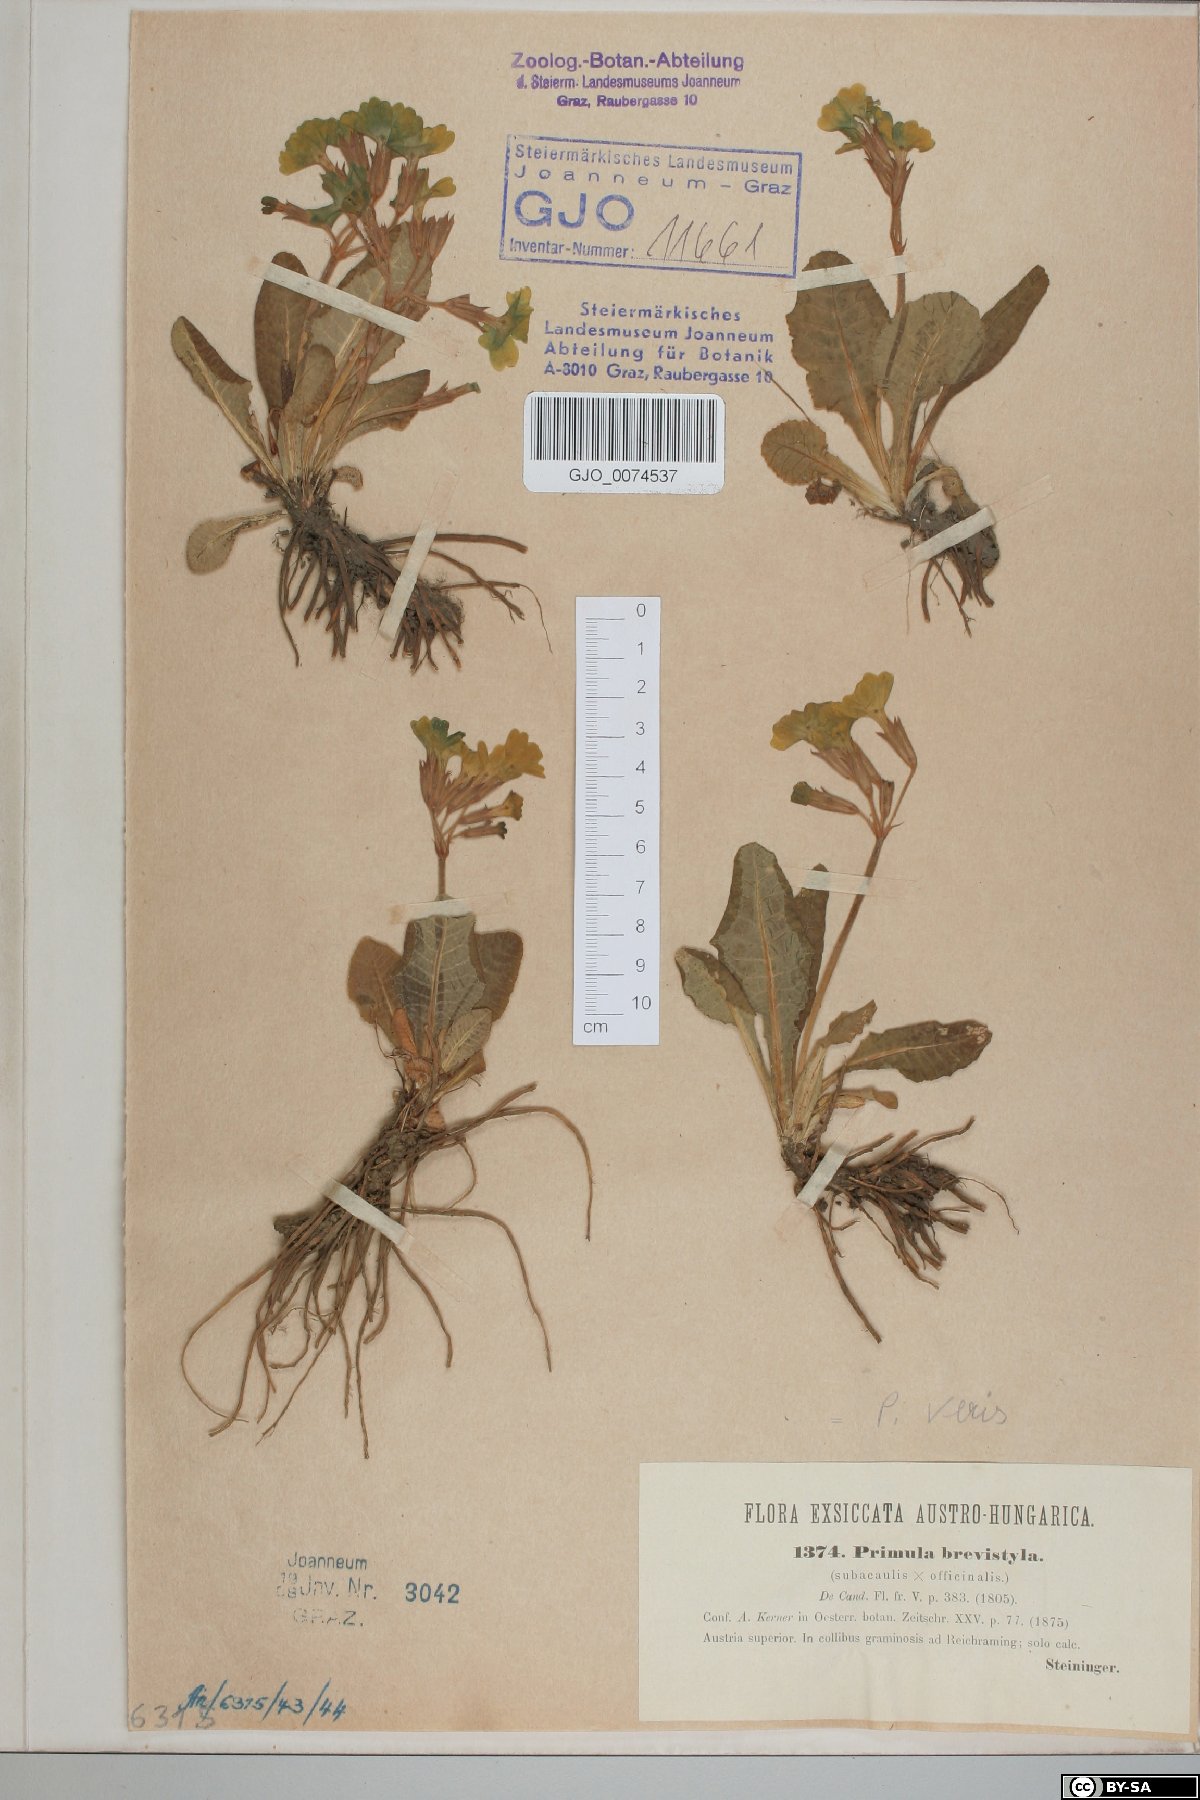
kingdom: Plantae
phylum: Tracheophyta
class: Magnoliopsida
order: Ericales
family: Primulaceae
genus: Primula
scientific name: Primula polyantha
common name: False oxlip
